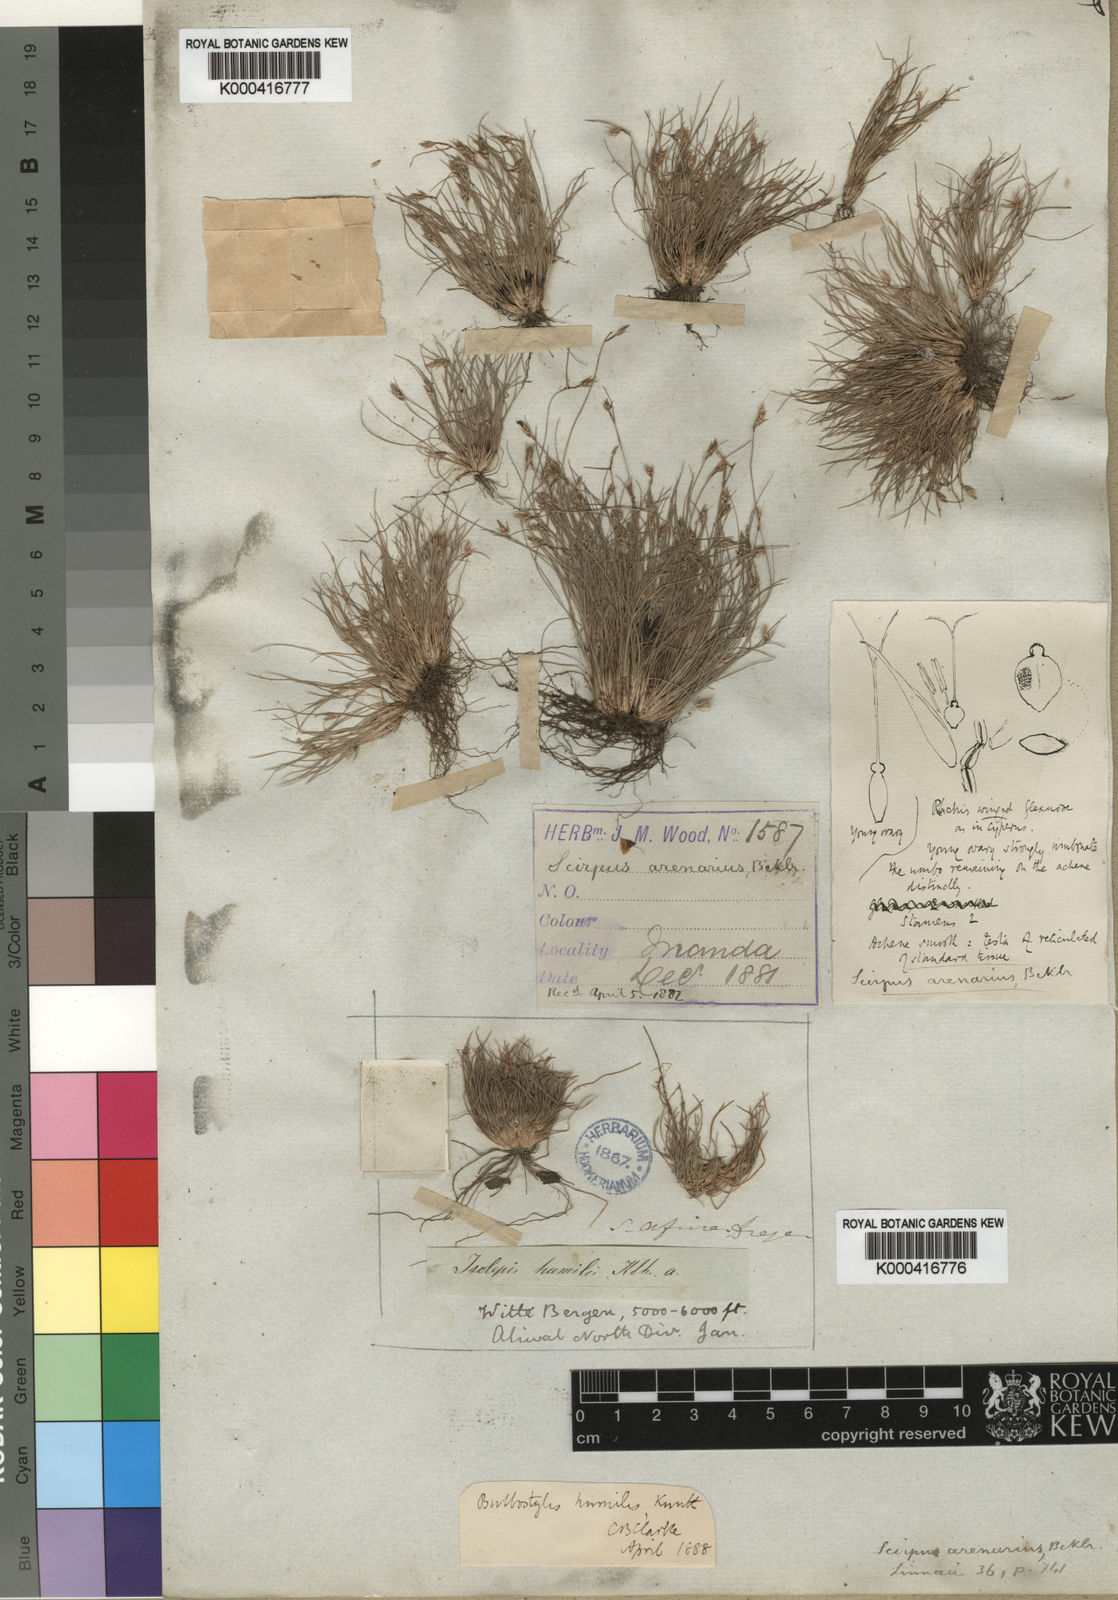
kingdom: Plantae
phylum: Tracheophyta
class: Liliopsida
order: Poales
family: Cyperaceae
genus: Bulbostylis
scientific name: Bulbostylis humilis
